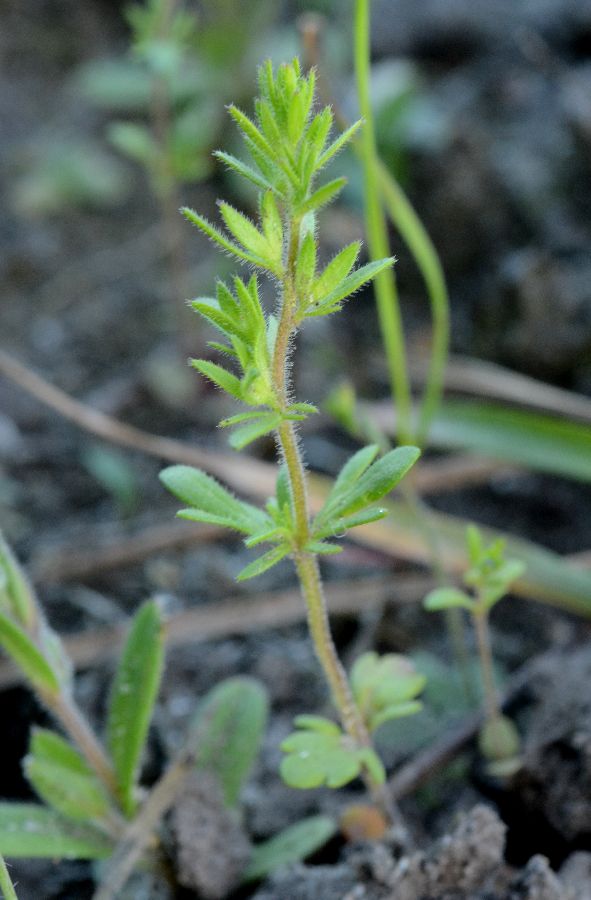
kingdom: Plantae
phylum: Tracheophyta
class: Magnoliopsida
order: Lamiales
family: Plantaginaceae
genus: Veronica
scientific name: Veronica verna
